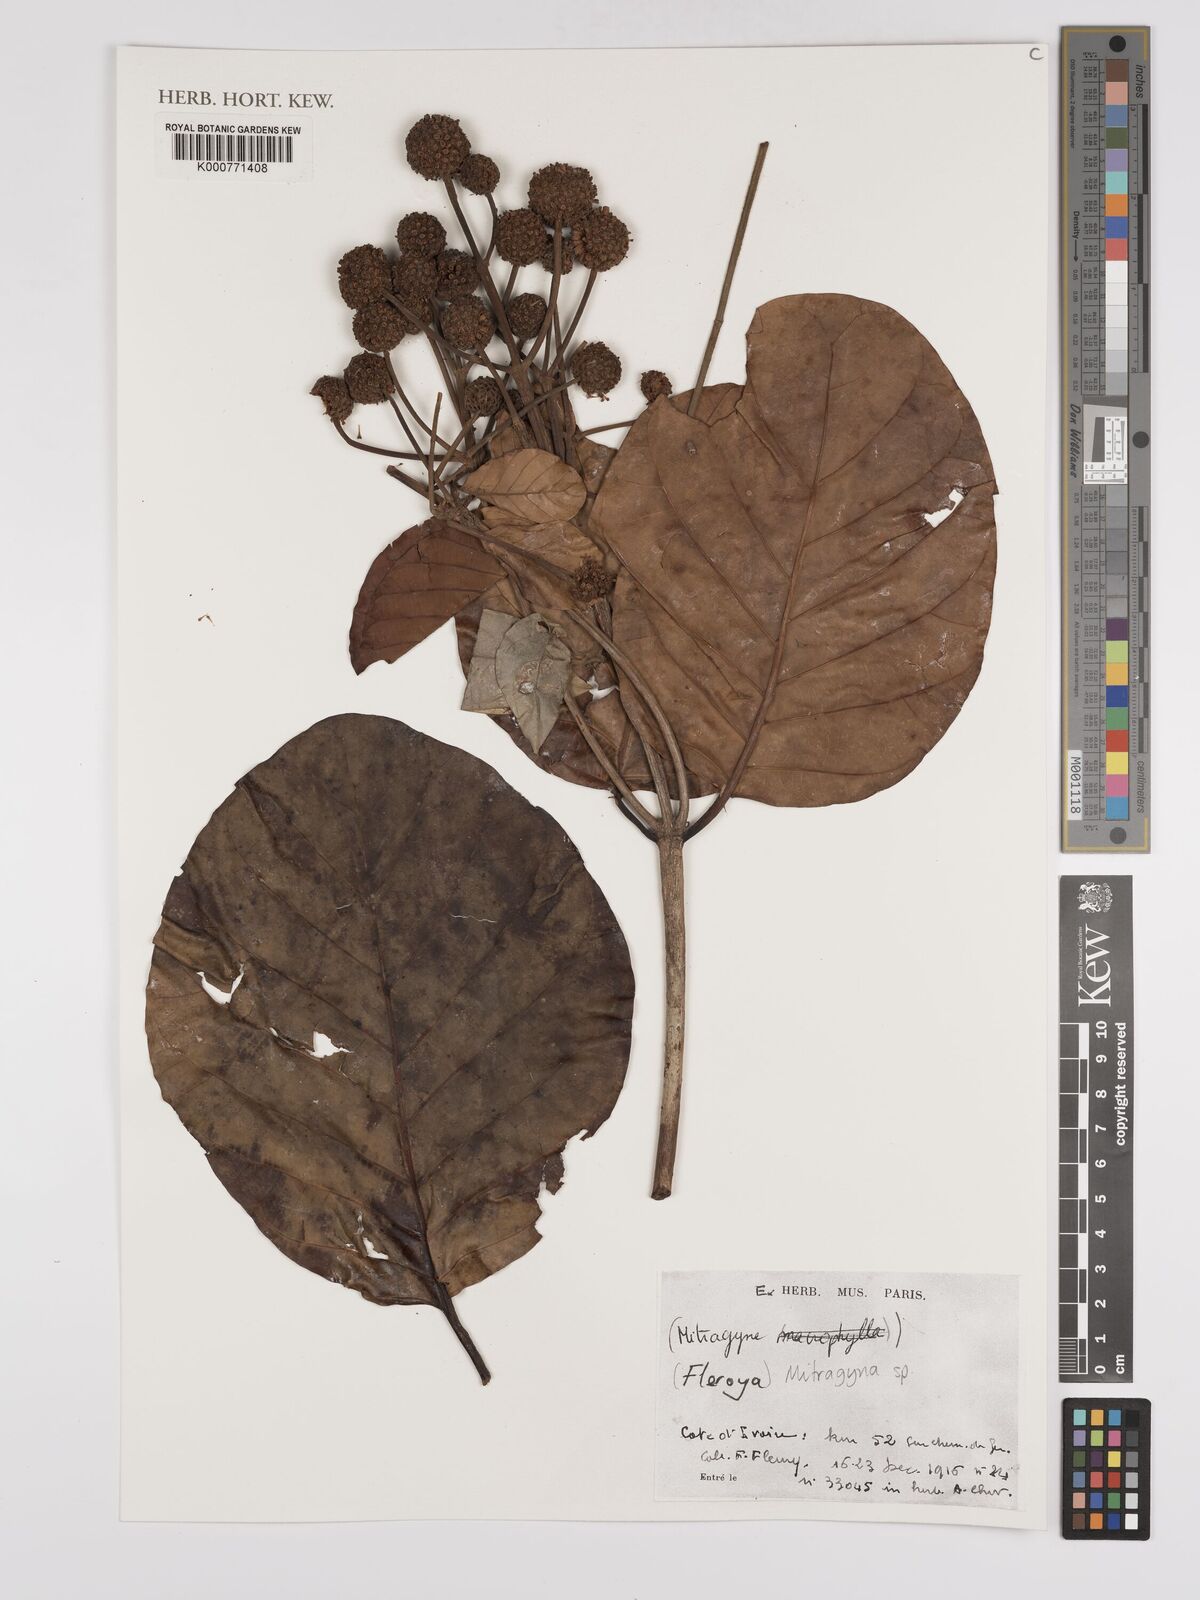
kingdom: Plantae
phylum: Tracheophyta
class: Magnoliopsida
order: Gentianales
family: Rubiaceae
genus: Fleroya
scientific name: Fleroya
